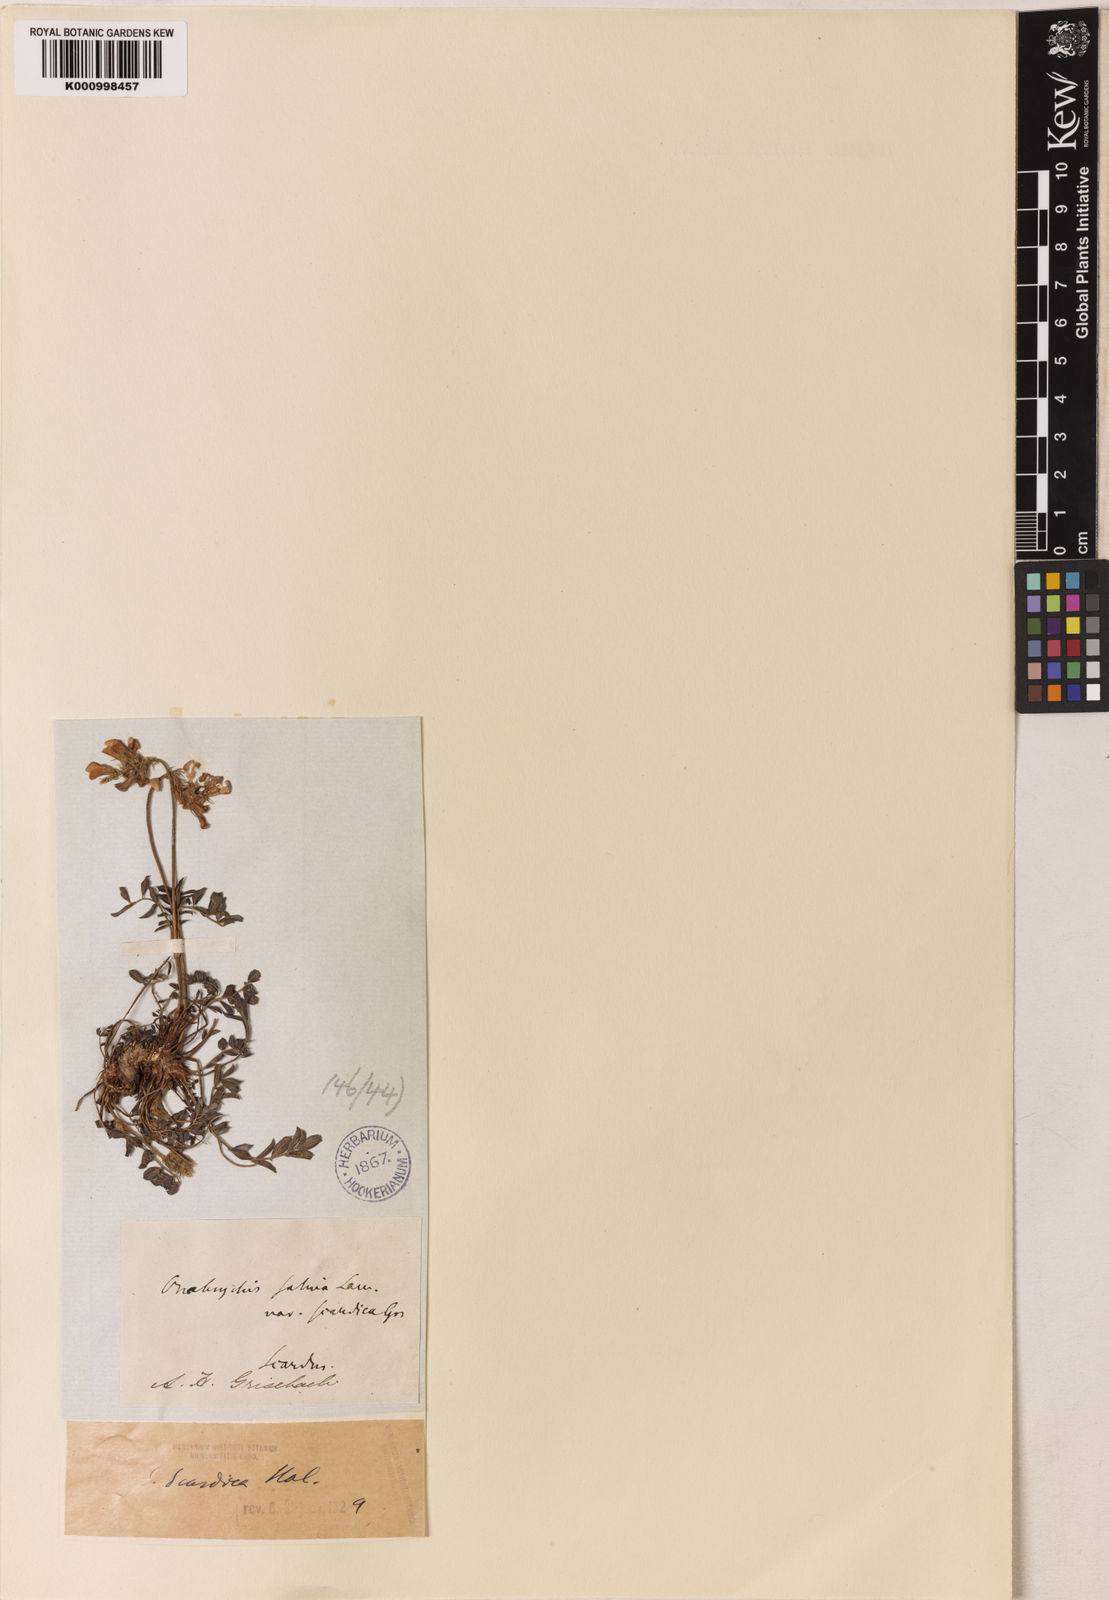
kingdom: Plantae
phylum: Tracheophyta
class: Magnoliopsida
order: Fabales
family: Fabaceae
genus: Onobrychis
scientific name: Onobrychis
